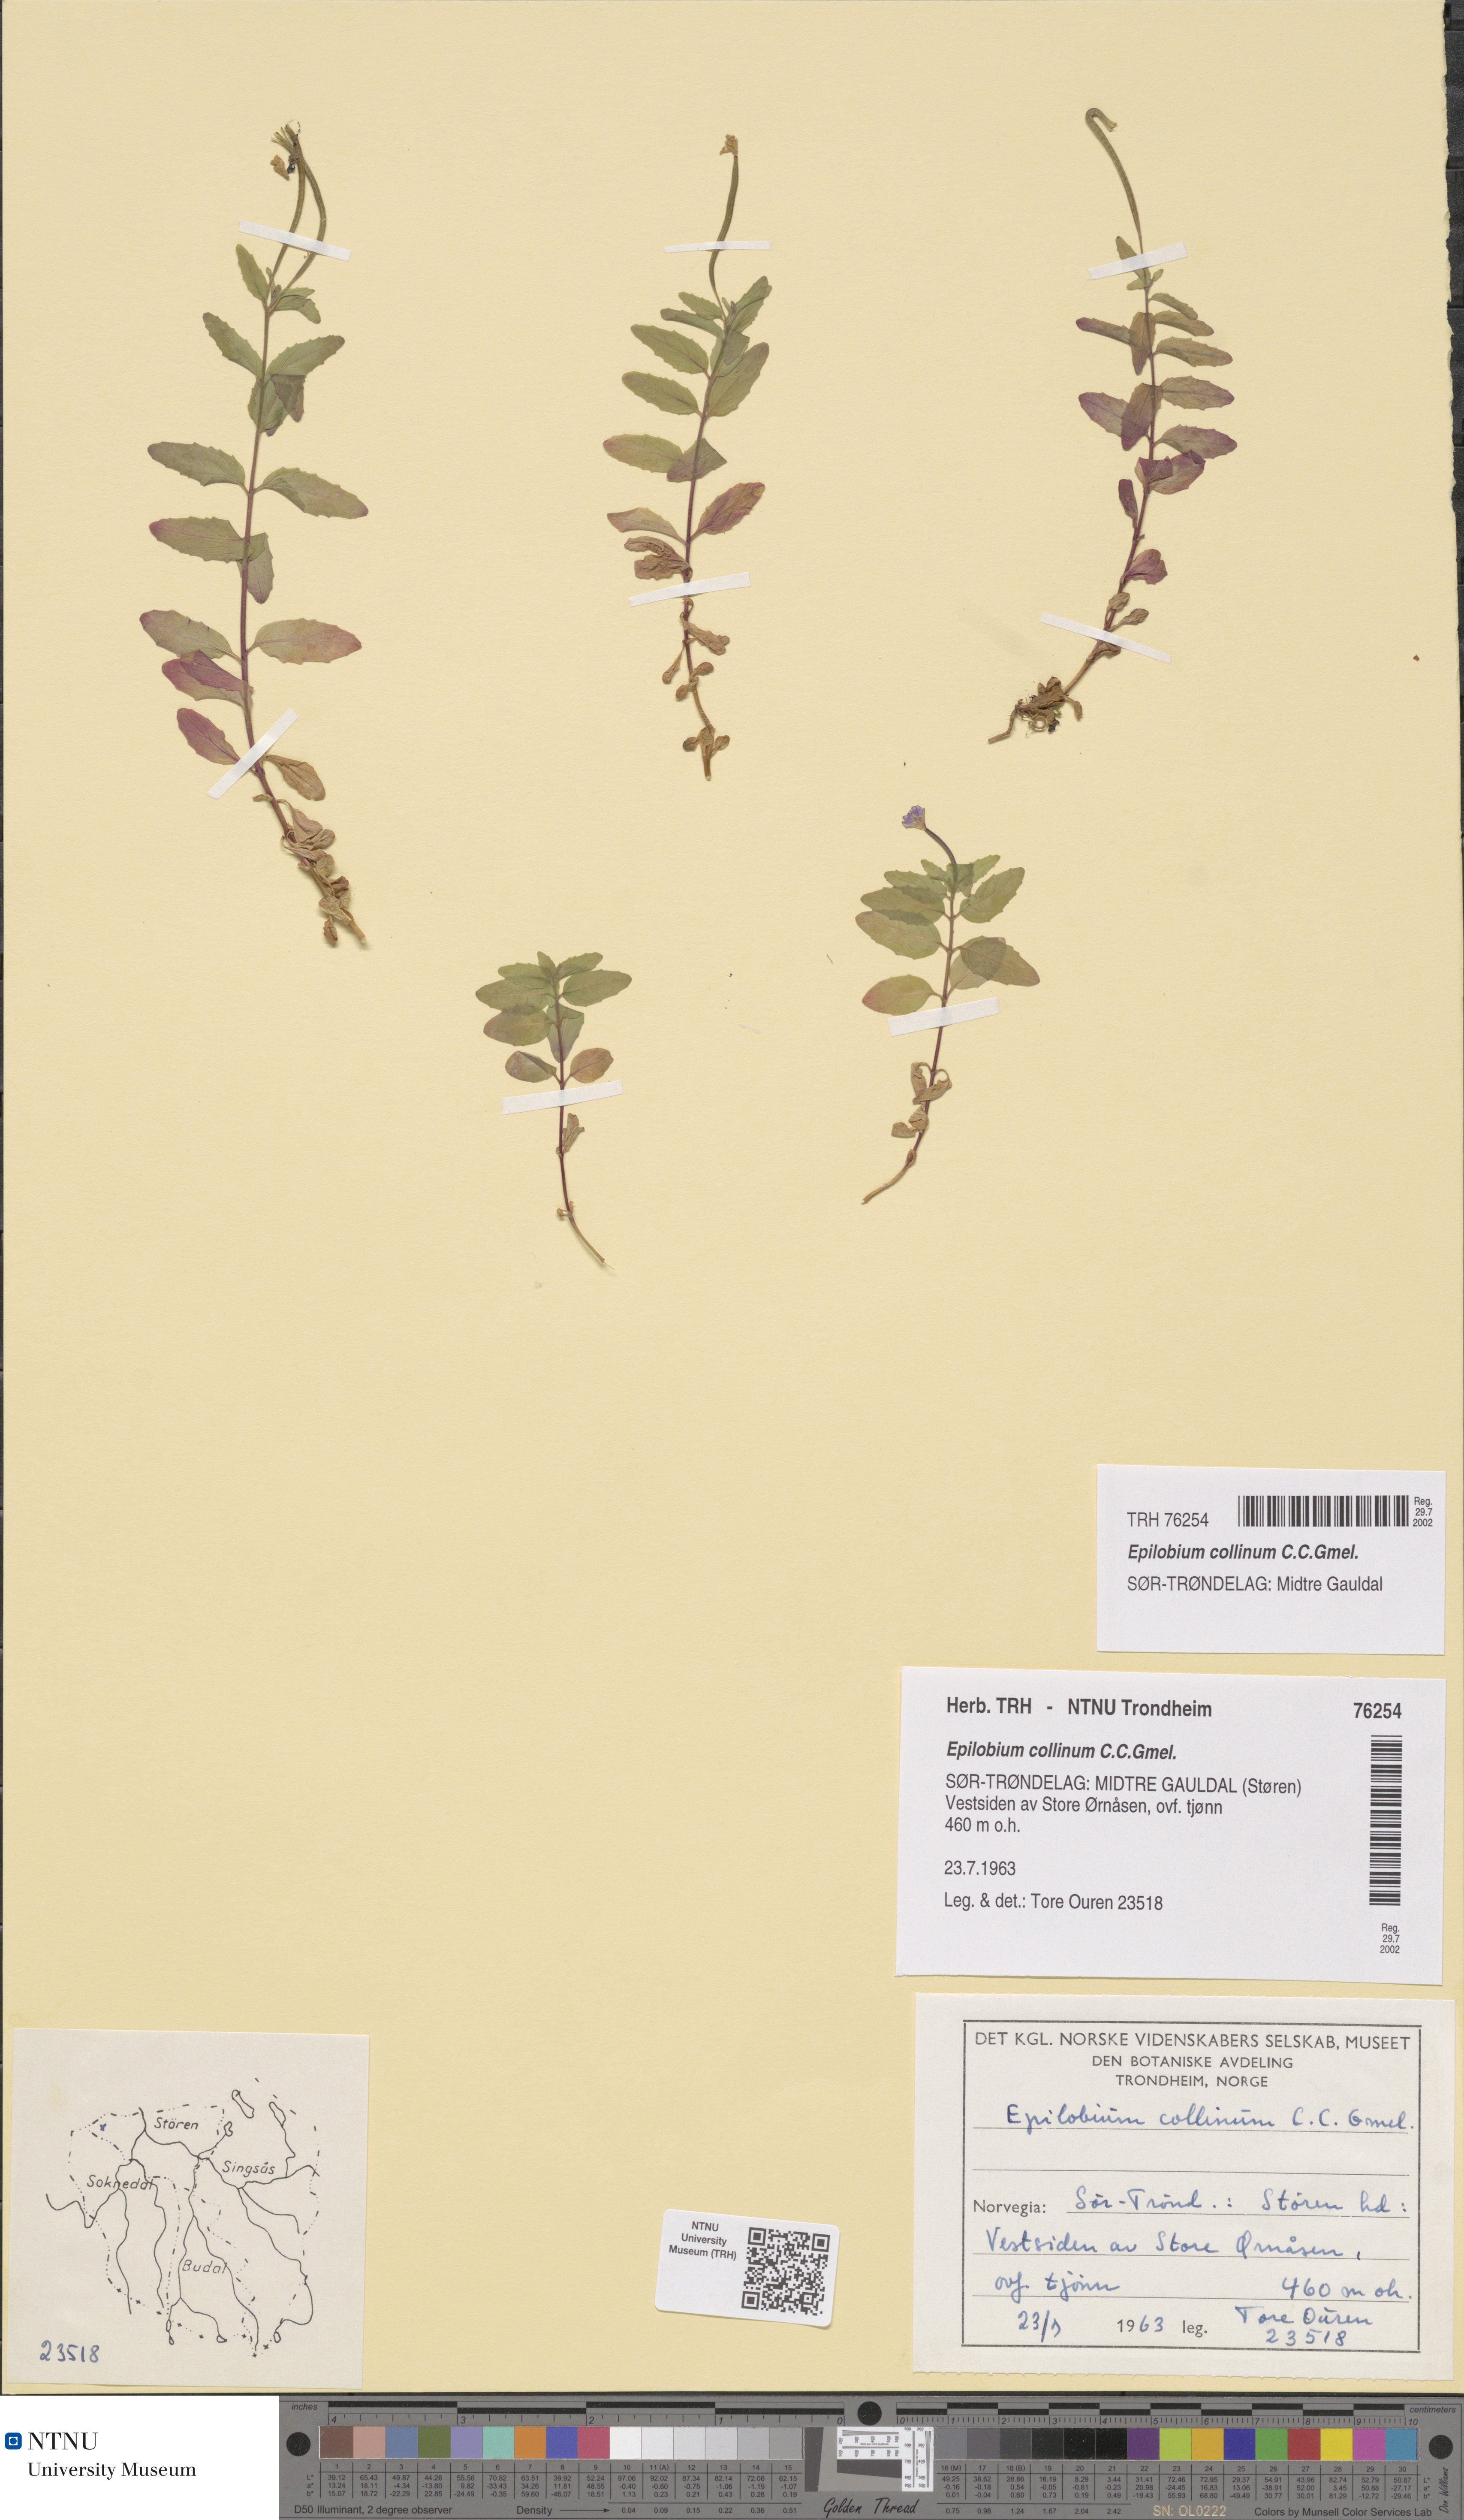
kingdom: Plantae
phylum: Tracheophyta
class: Magnoliopsida
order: Myrtales
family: Onagraceae
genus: Epilobium
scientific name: Epilobium collinum
